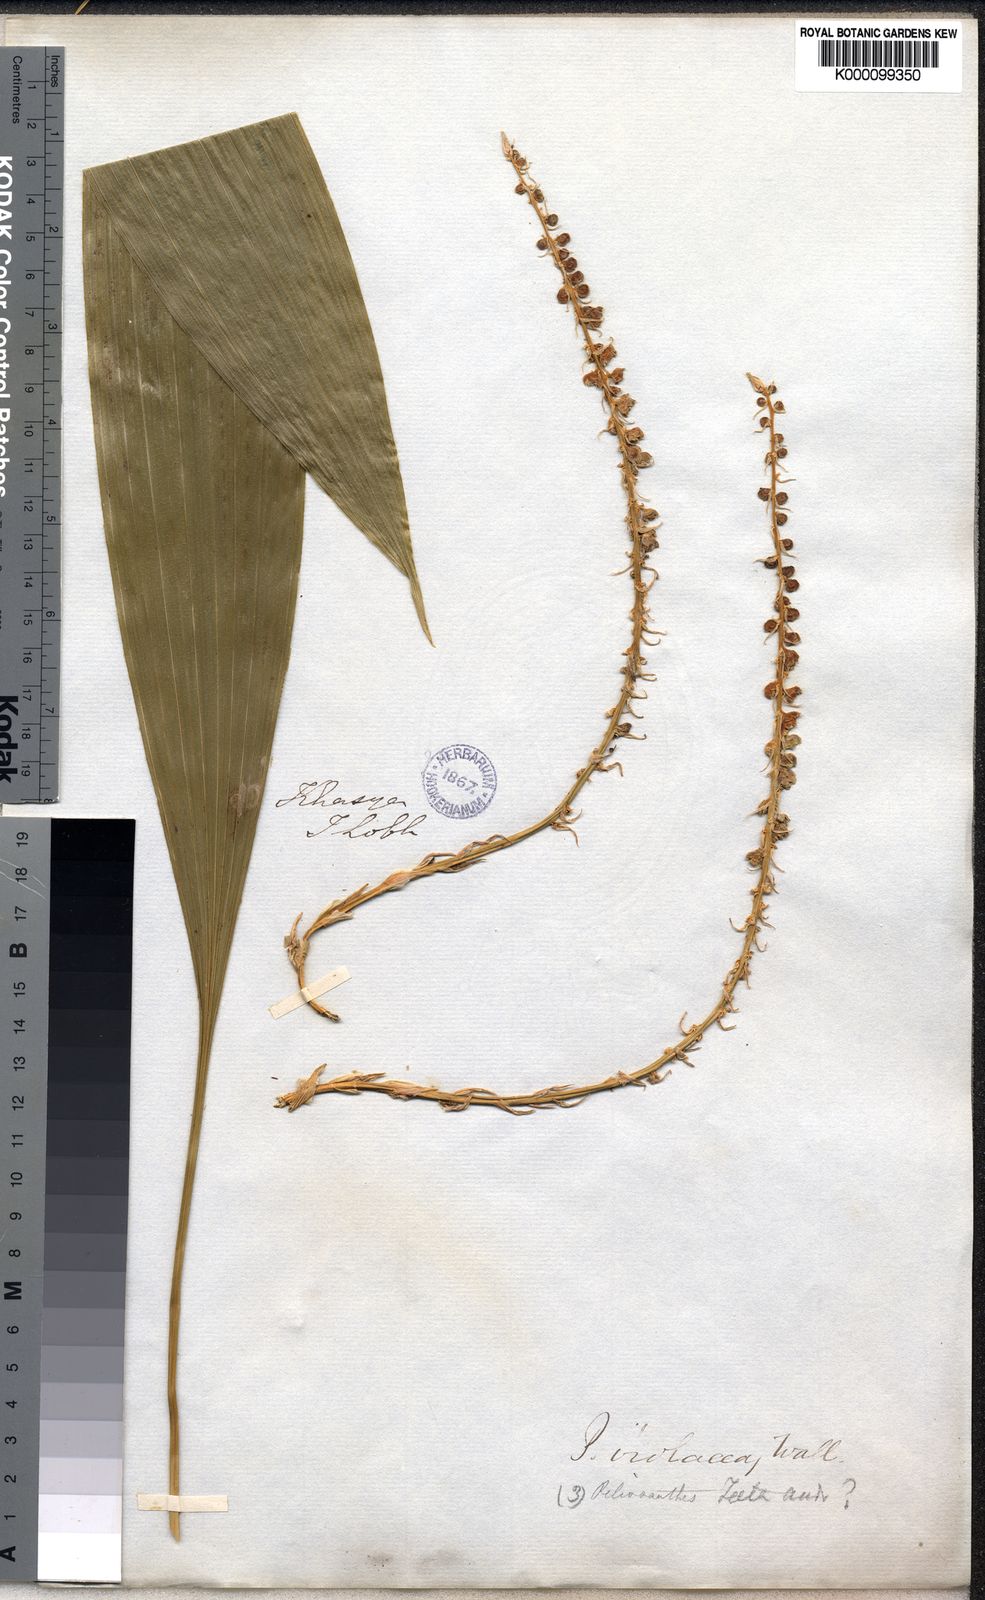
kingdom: Plantae
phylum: Tracheophyta
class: Liliopsida
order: Asparagales
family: Asparagaceae
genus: Peliosanthes
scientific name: Peliosanthes teta
